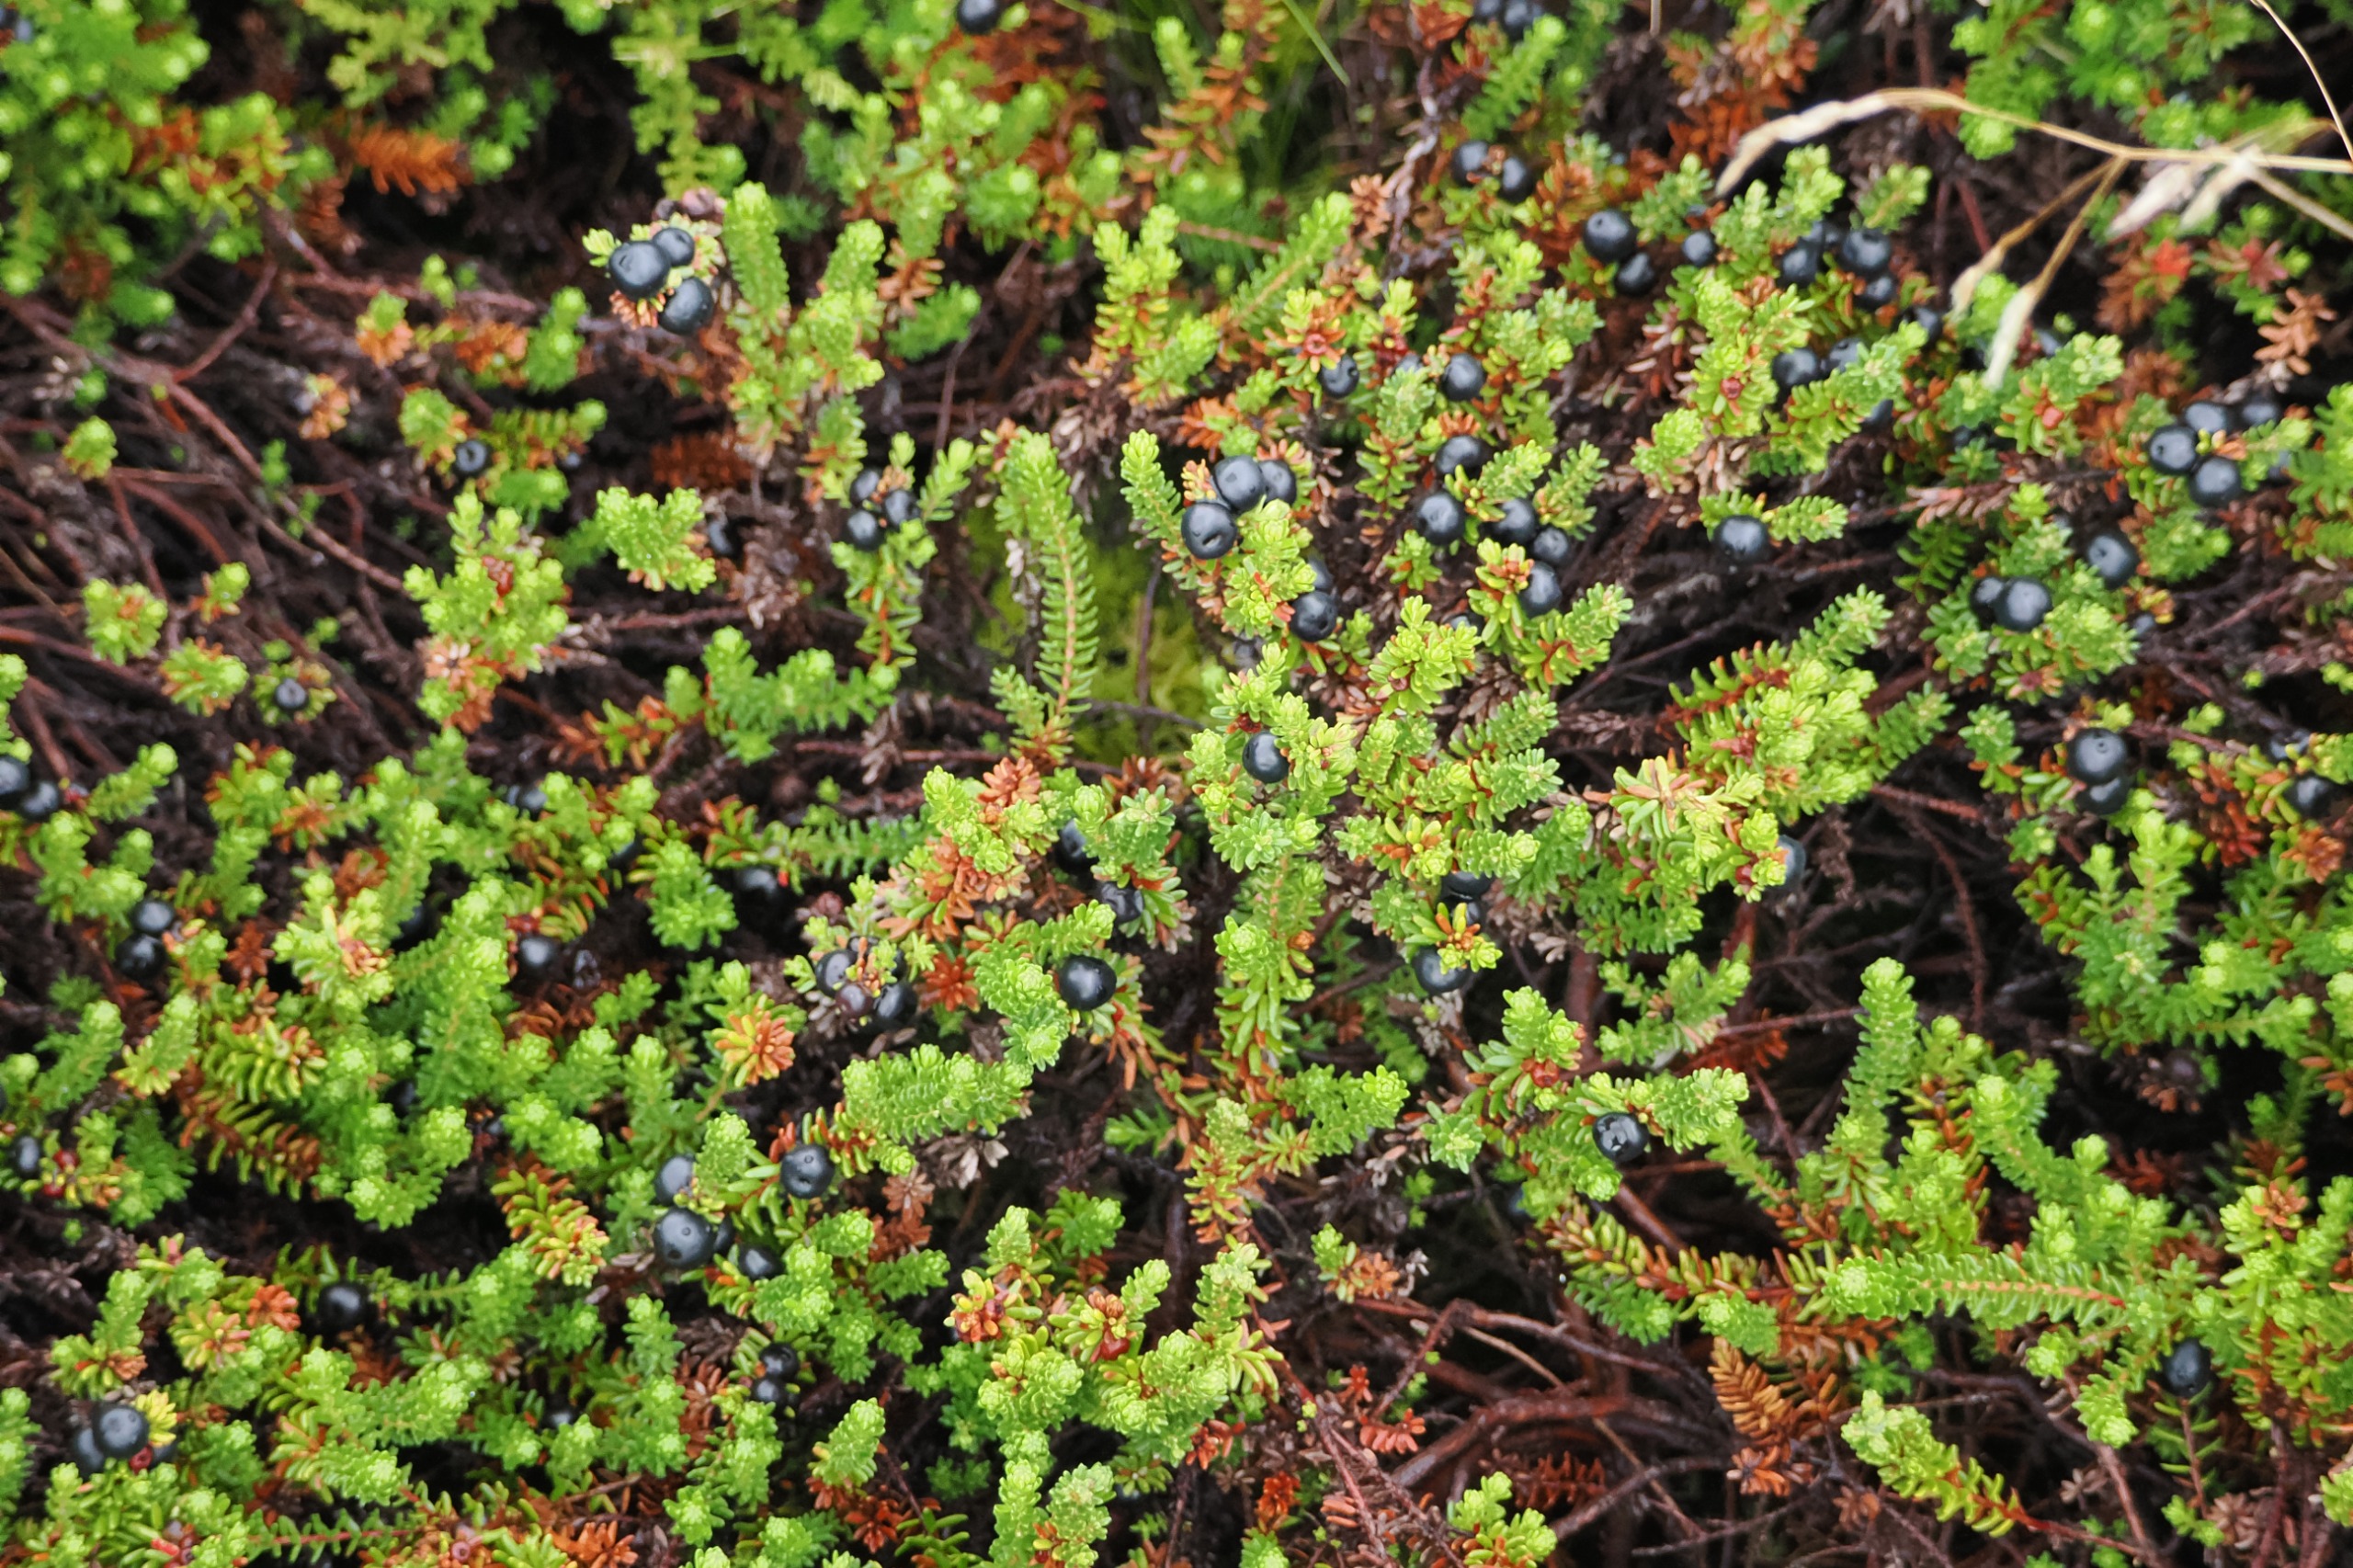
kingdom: Plantae
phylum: Tracheophyta
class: Magnoliopsida
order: Ericales
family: Ericaceae
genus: Empetrum
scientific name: Empetrum nigrum
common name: Revling
